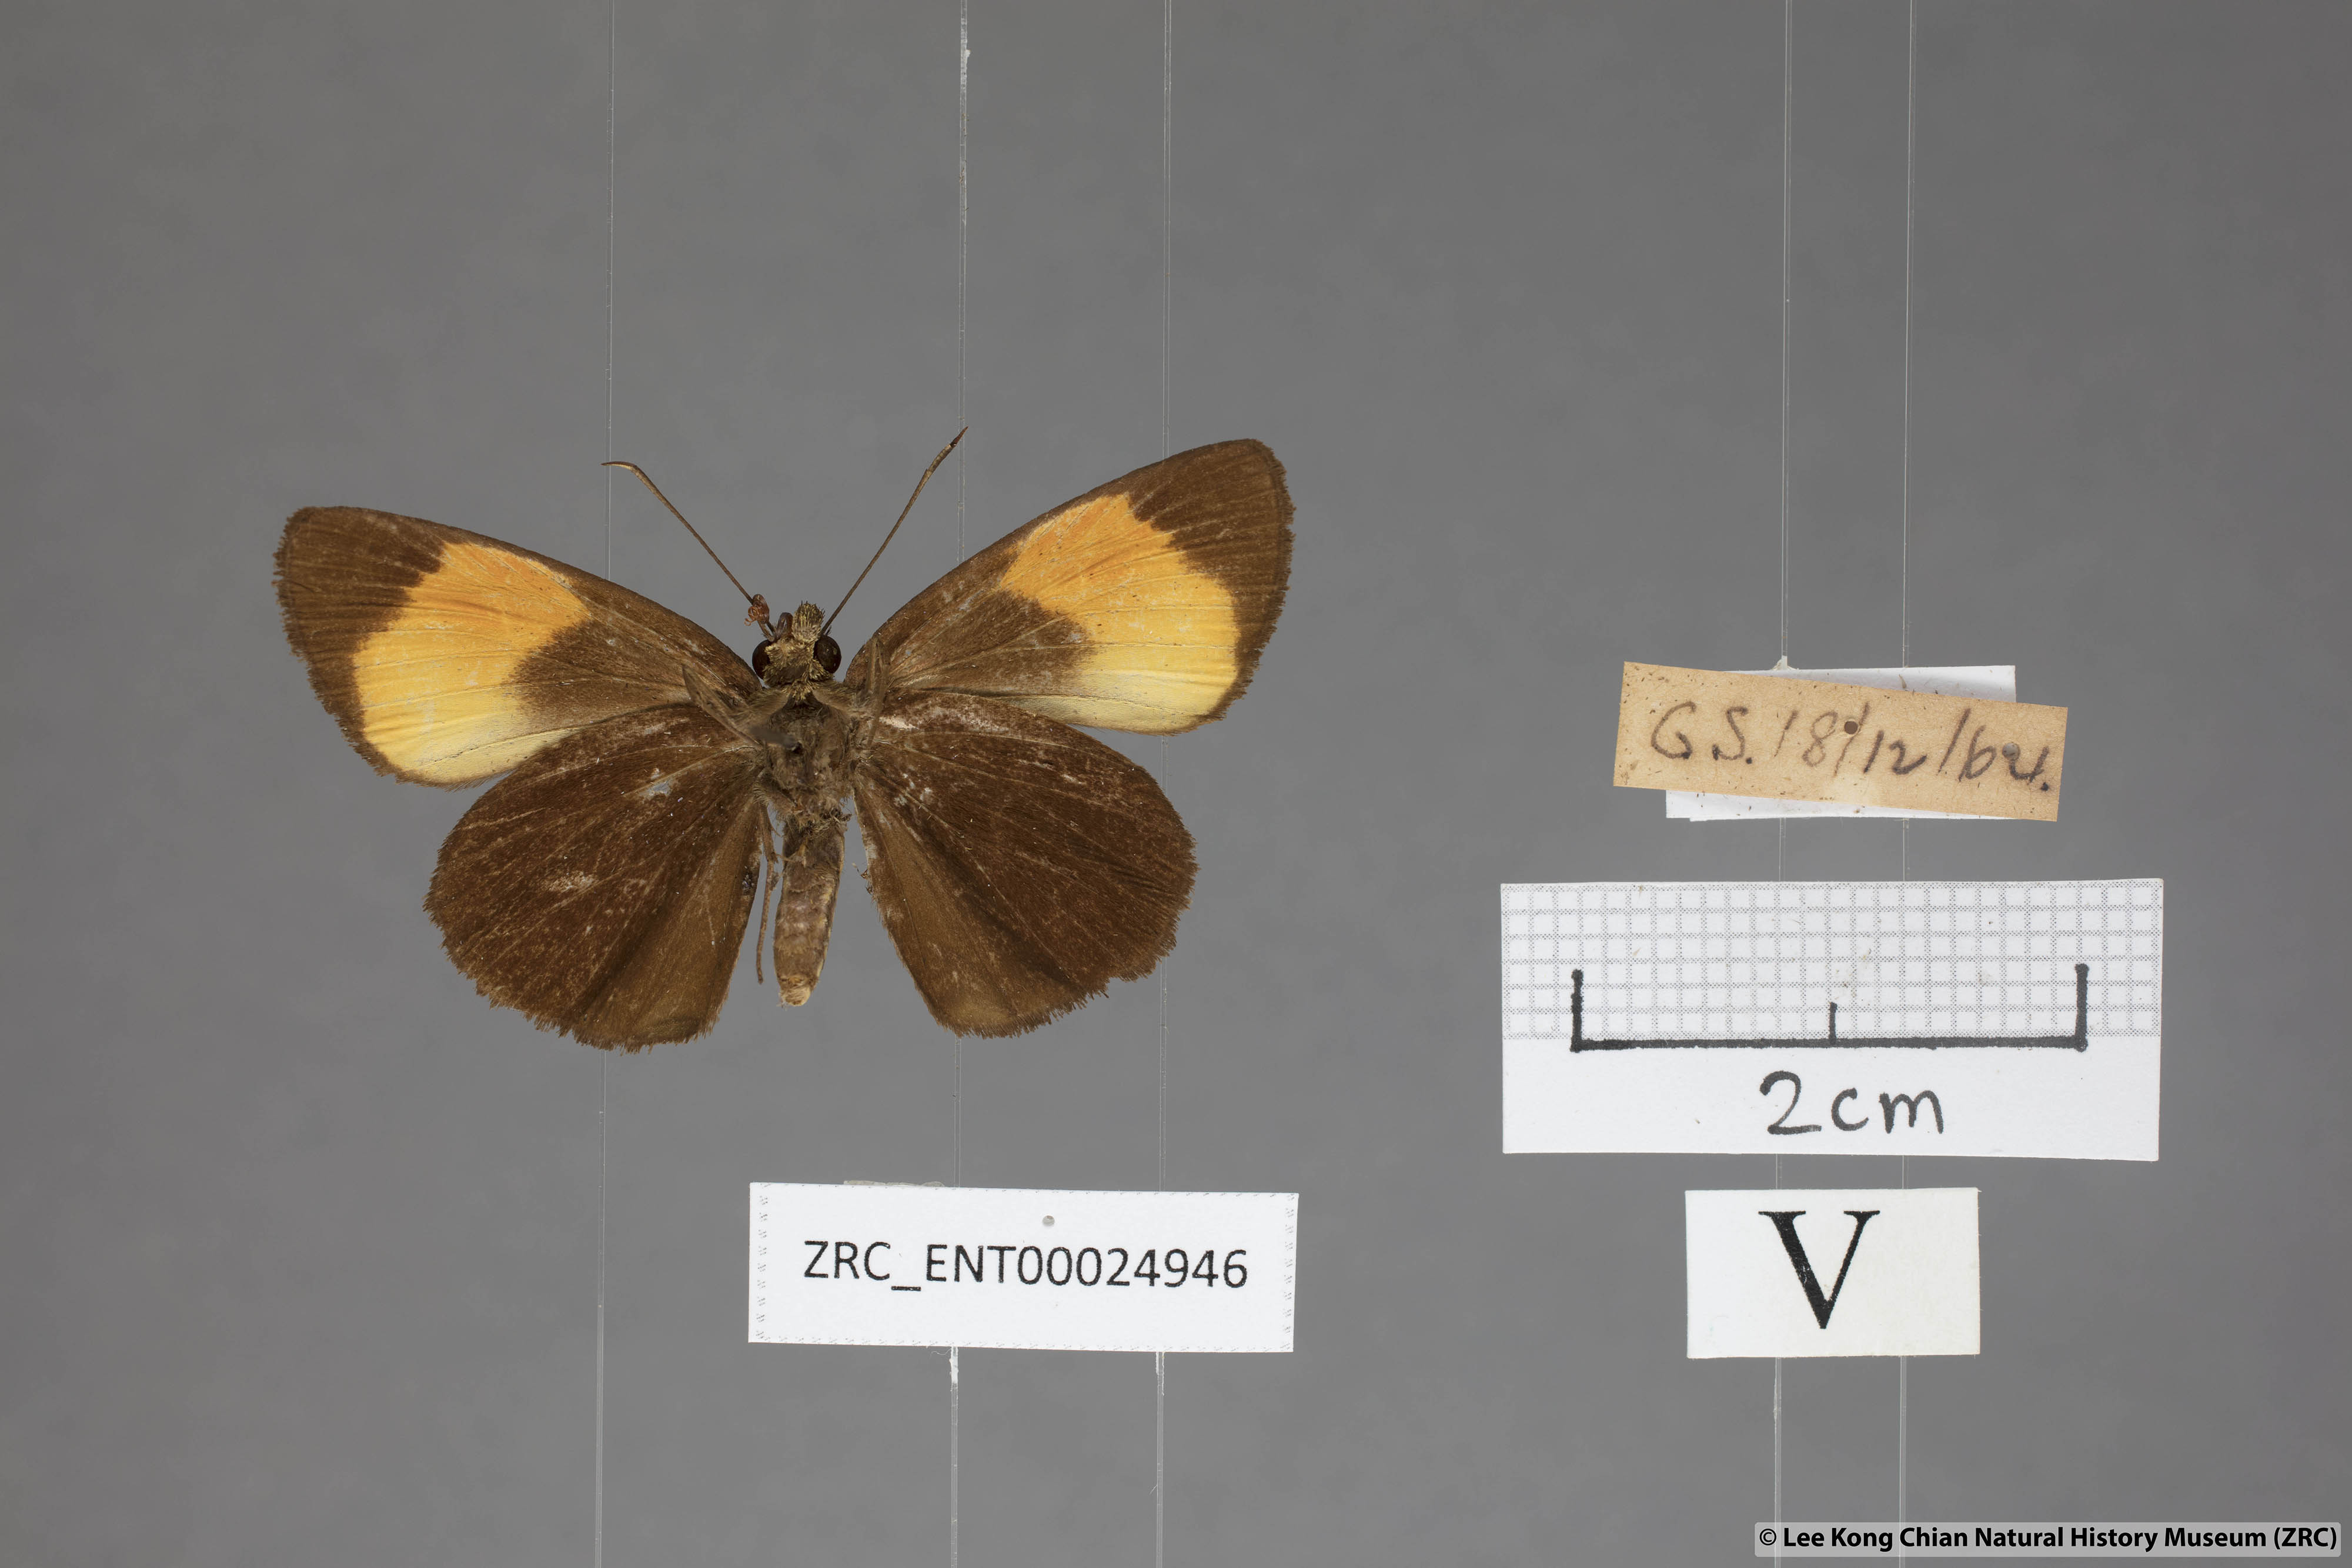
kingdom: Animalia
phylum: Arthropoda
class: Insecta
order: Lepidoptera
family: Hesperiidae
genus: Koruthaialos
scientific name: Koruthaialos sindu
